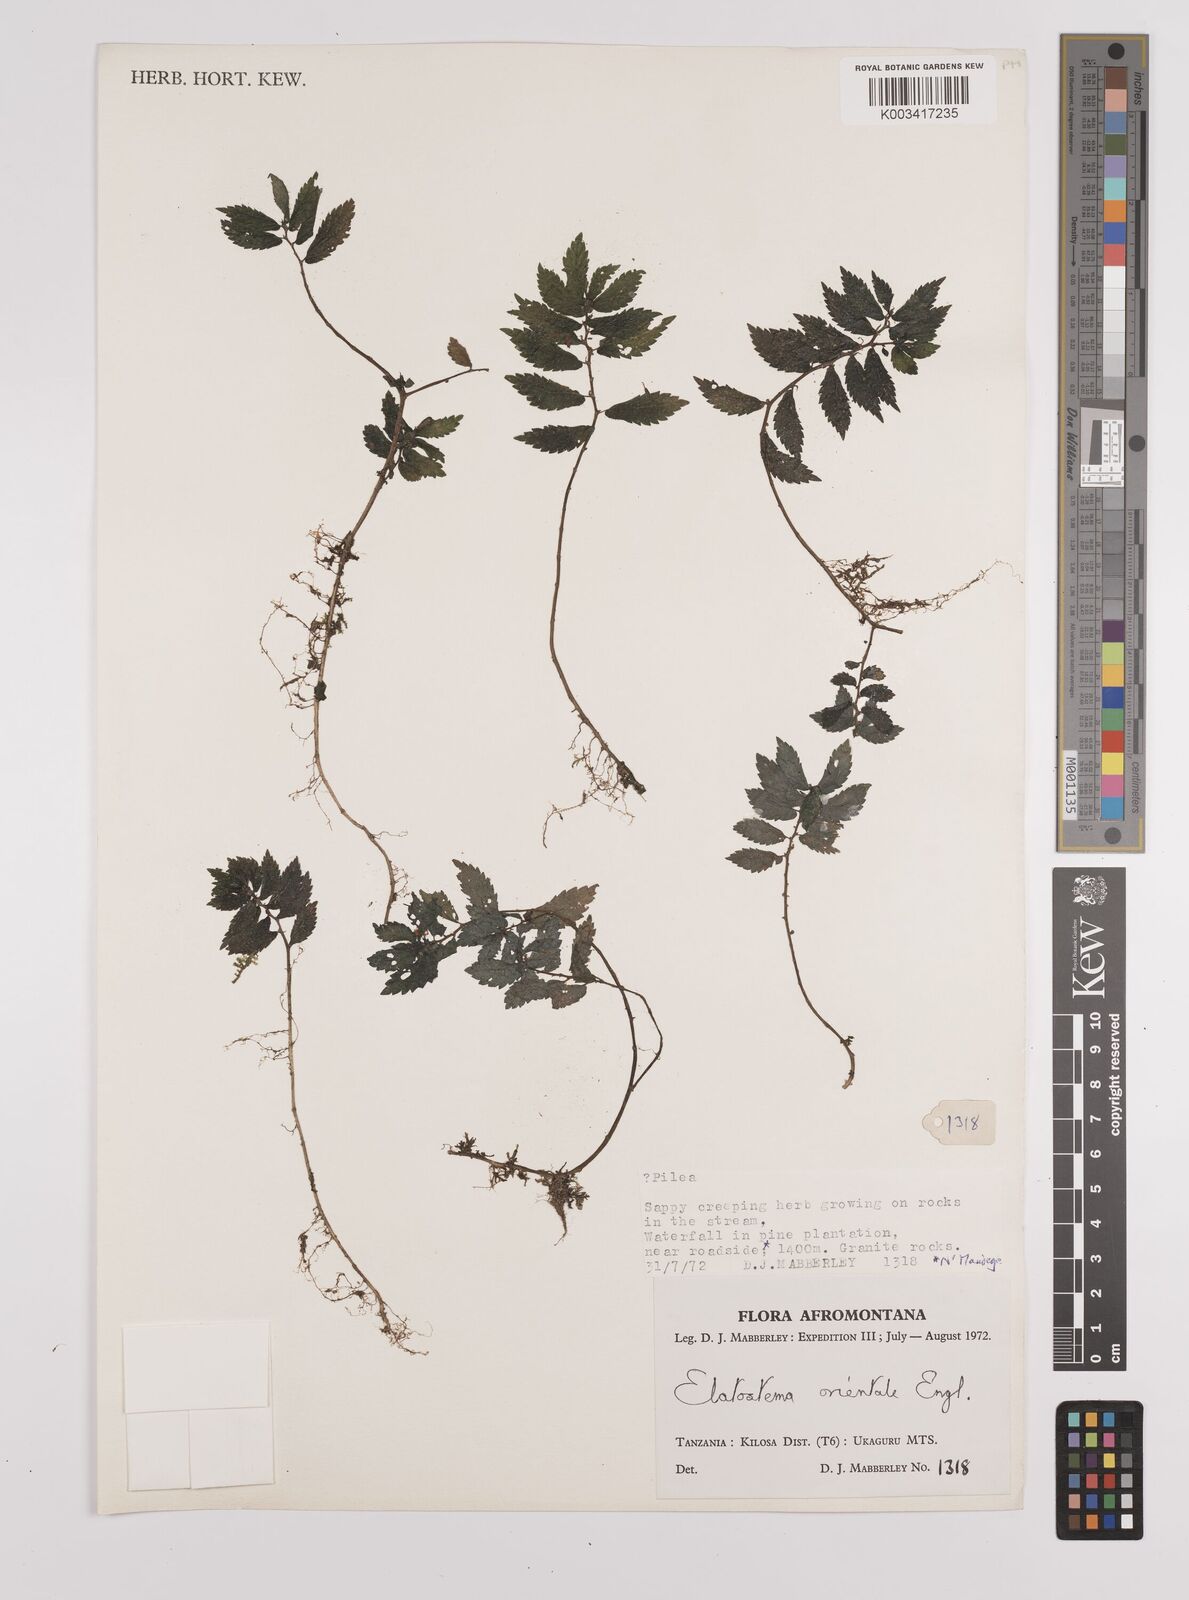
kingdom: Plantae
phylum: Tracheophyta
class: Magnoliopsida
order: Rosales
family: Urticaceae
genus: Elatostema
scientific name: Elatostema monticola
